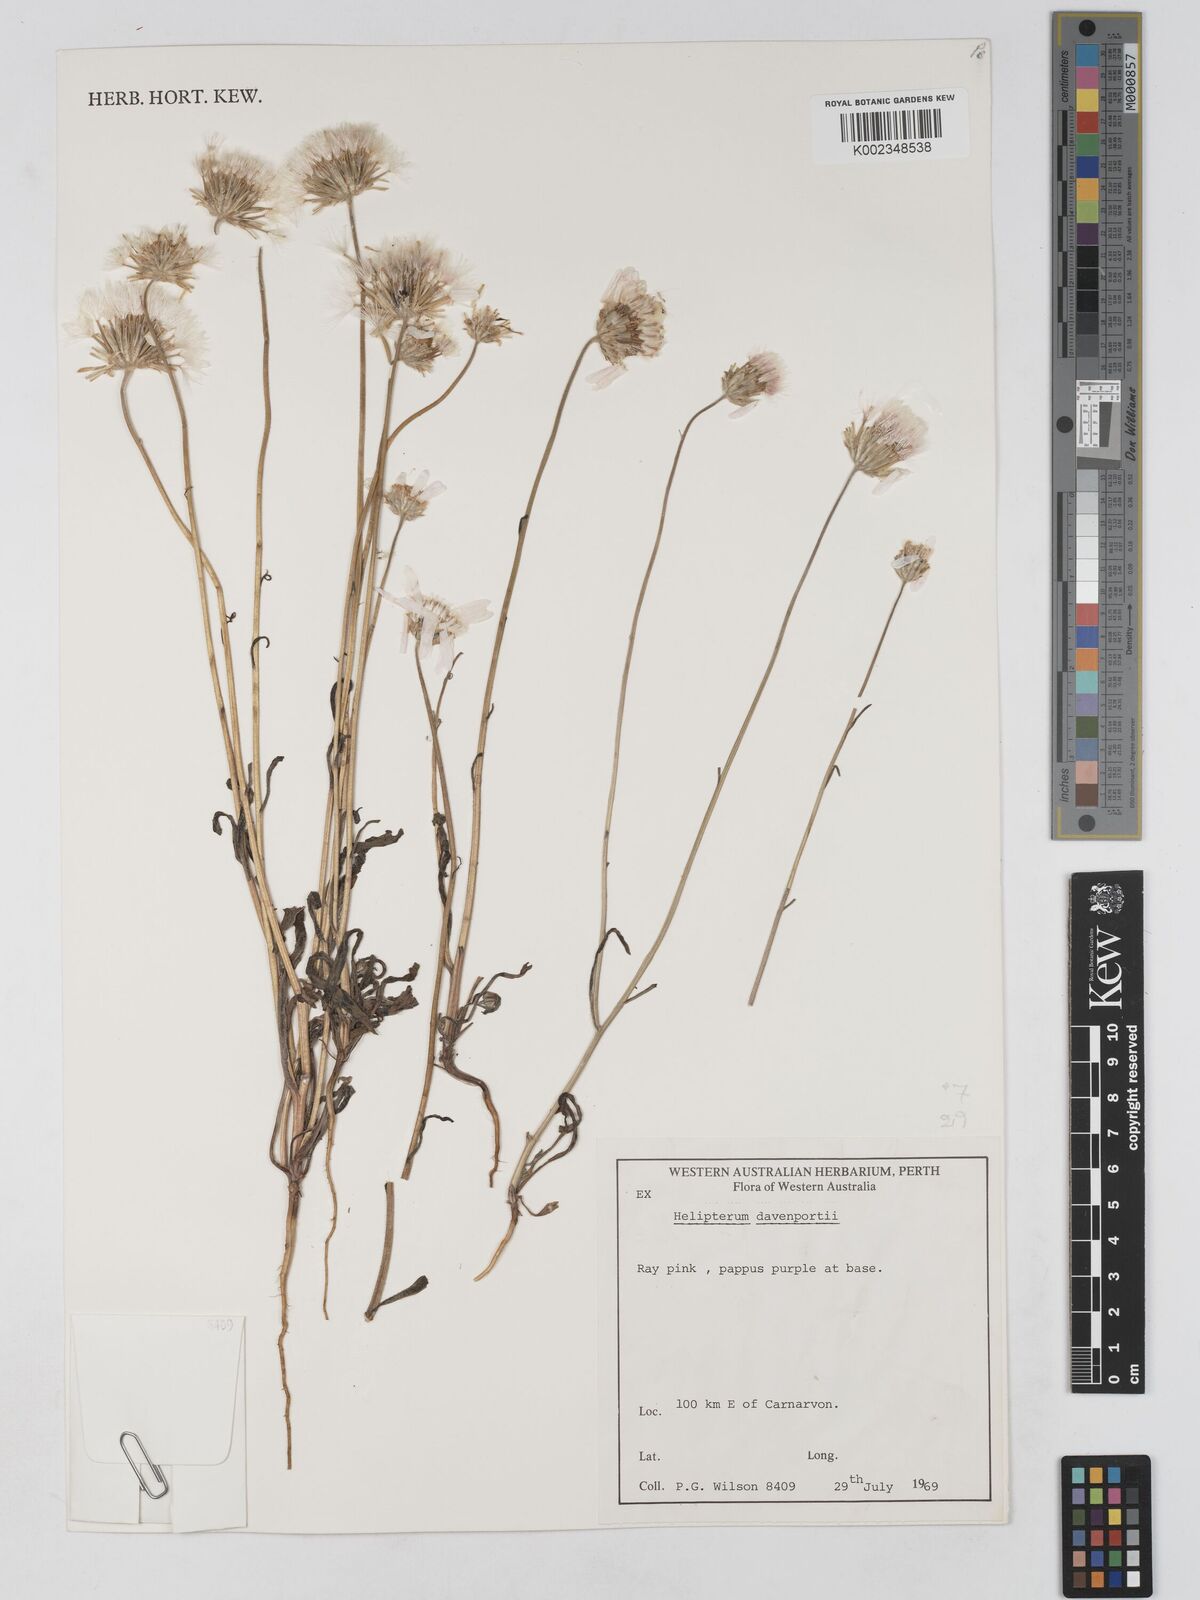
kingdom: Plantae
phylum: Tracheophyta
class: Magnoliopsida
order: Asterales
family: Asteraceae
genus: Lawrencella
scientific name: Lawrencella davenportii
